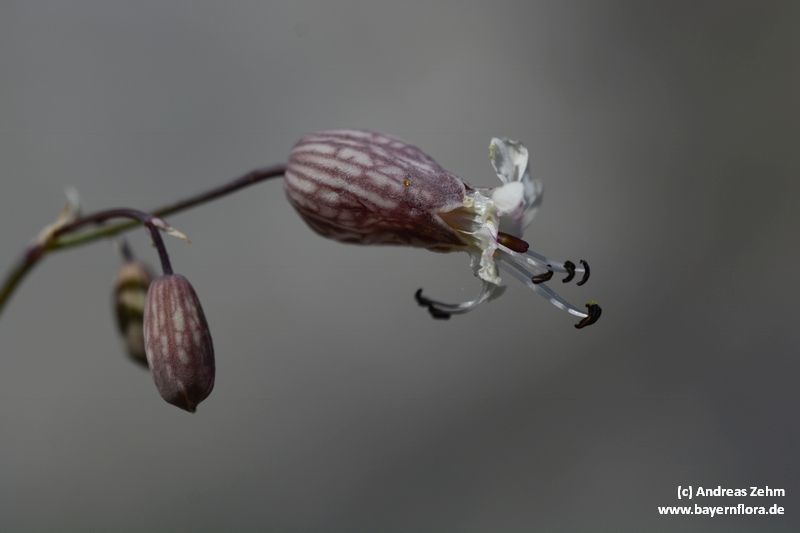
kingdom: Plantae
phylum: Tracheophyta
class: Magnoliopsida
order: Caryophyllales
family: Caryophyllaceae
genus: Silene
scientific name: Silene glareosa
